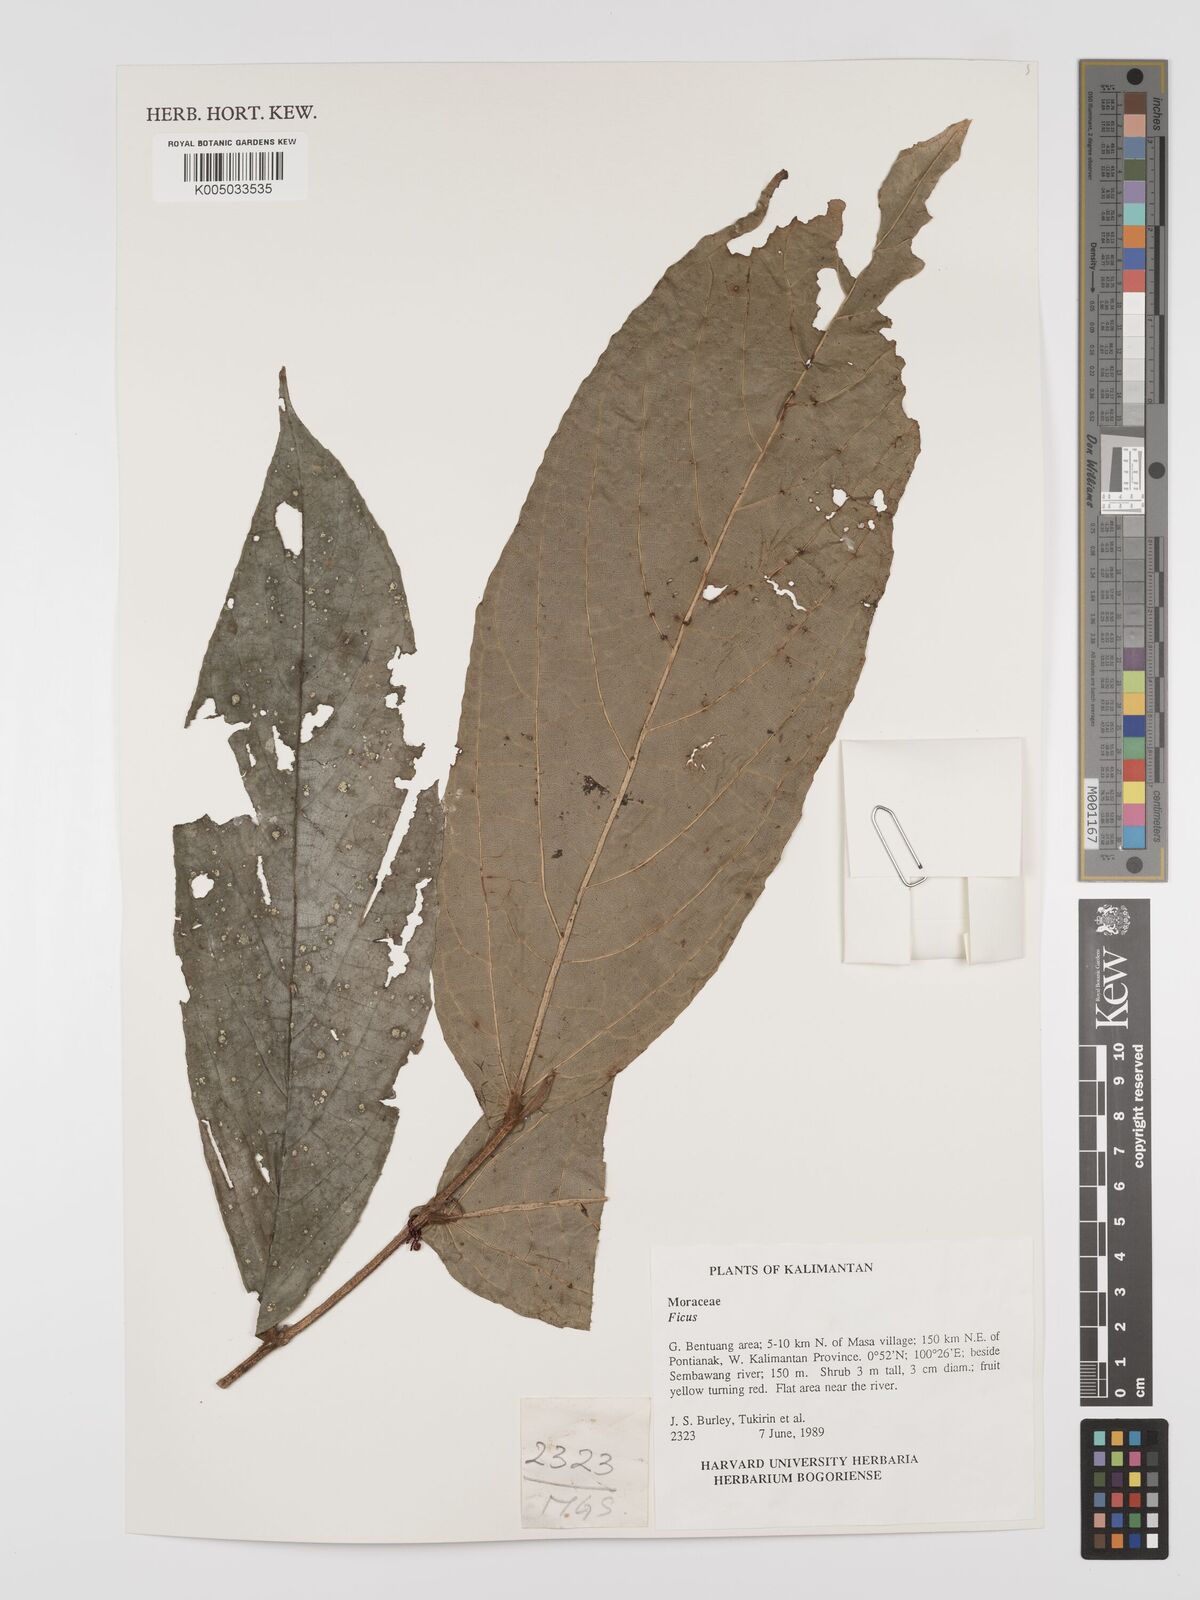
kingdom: Plantae
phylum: Tracheophyta
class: Magnoliopsida
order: Rosales
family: Moraceae
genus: Ficus
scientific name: Ficus
